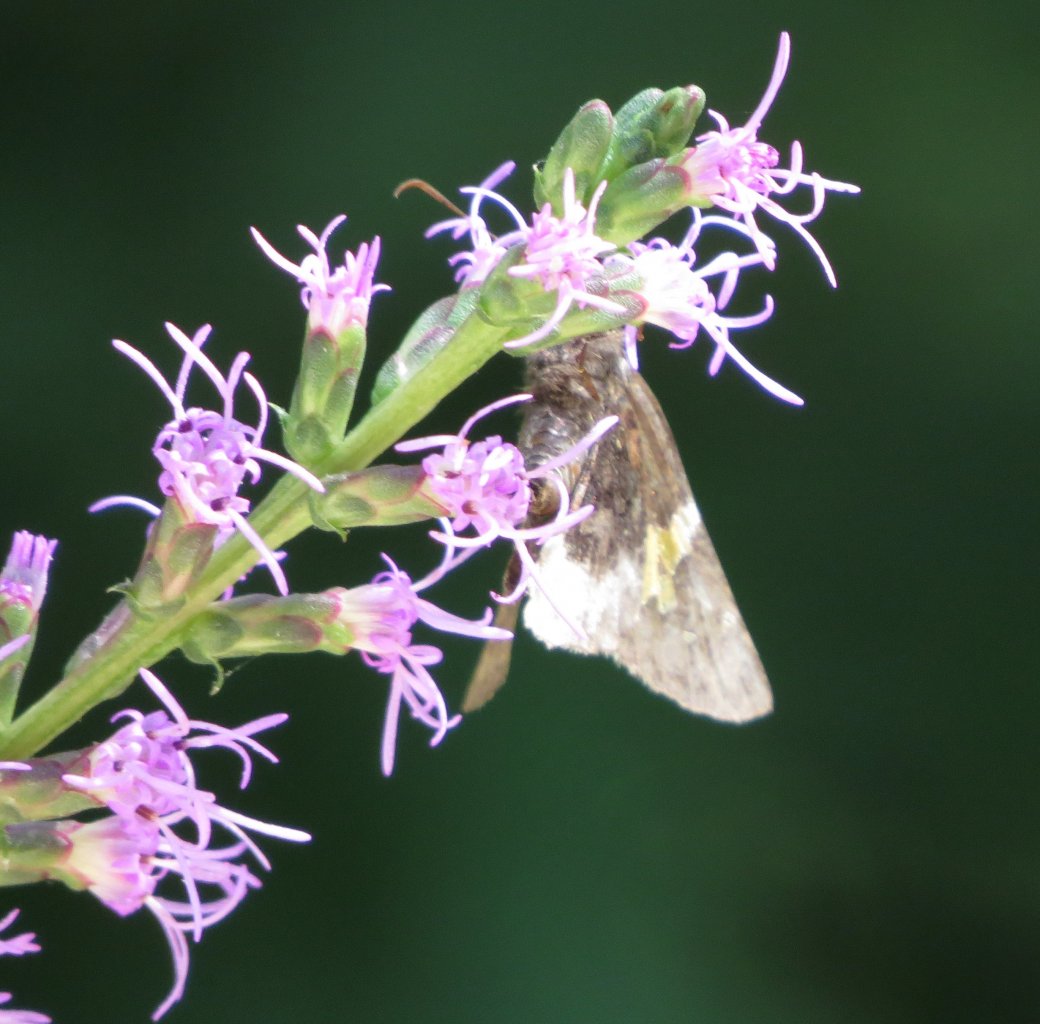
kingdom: Animalia
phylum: Arthropoda
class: Insecta
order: Lepidoptera
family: Hesperiidae
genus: Achalarus
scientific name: Achalarus lyciades
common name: Hoary Edge
